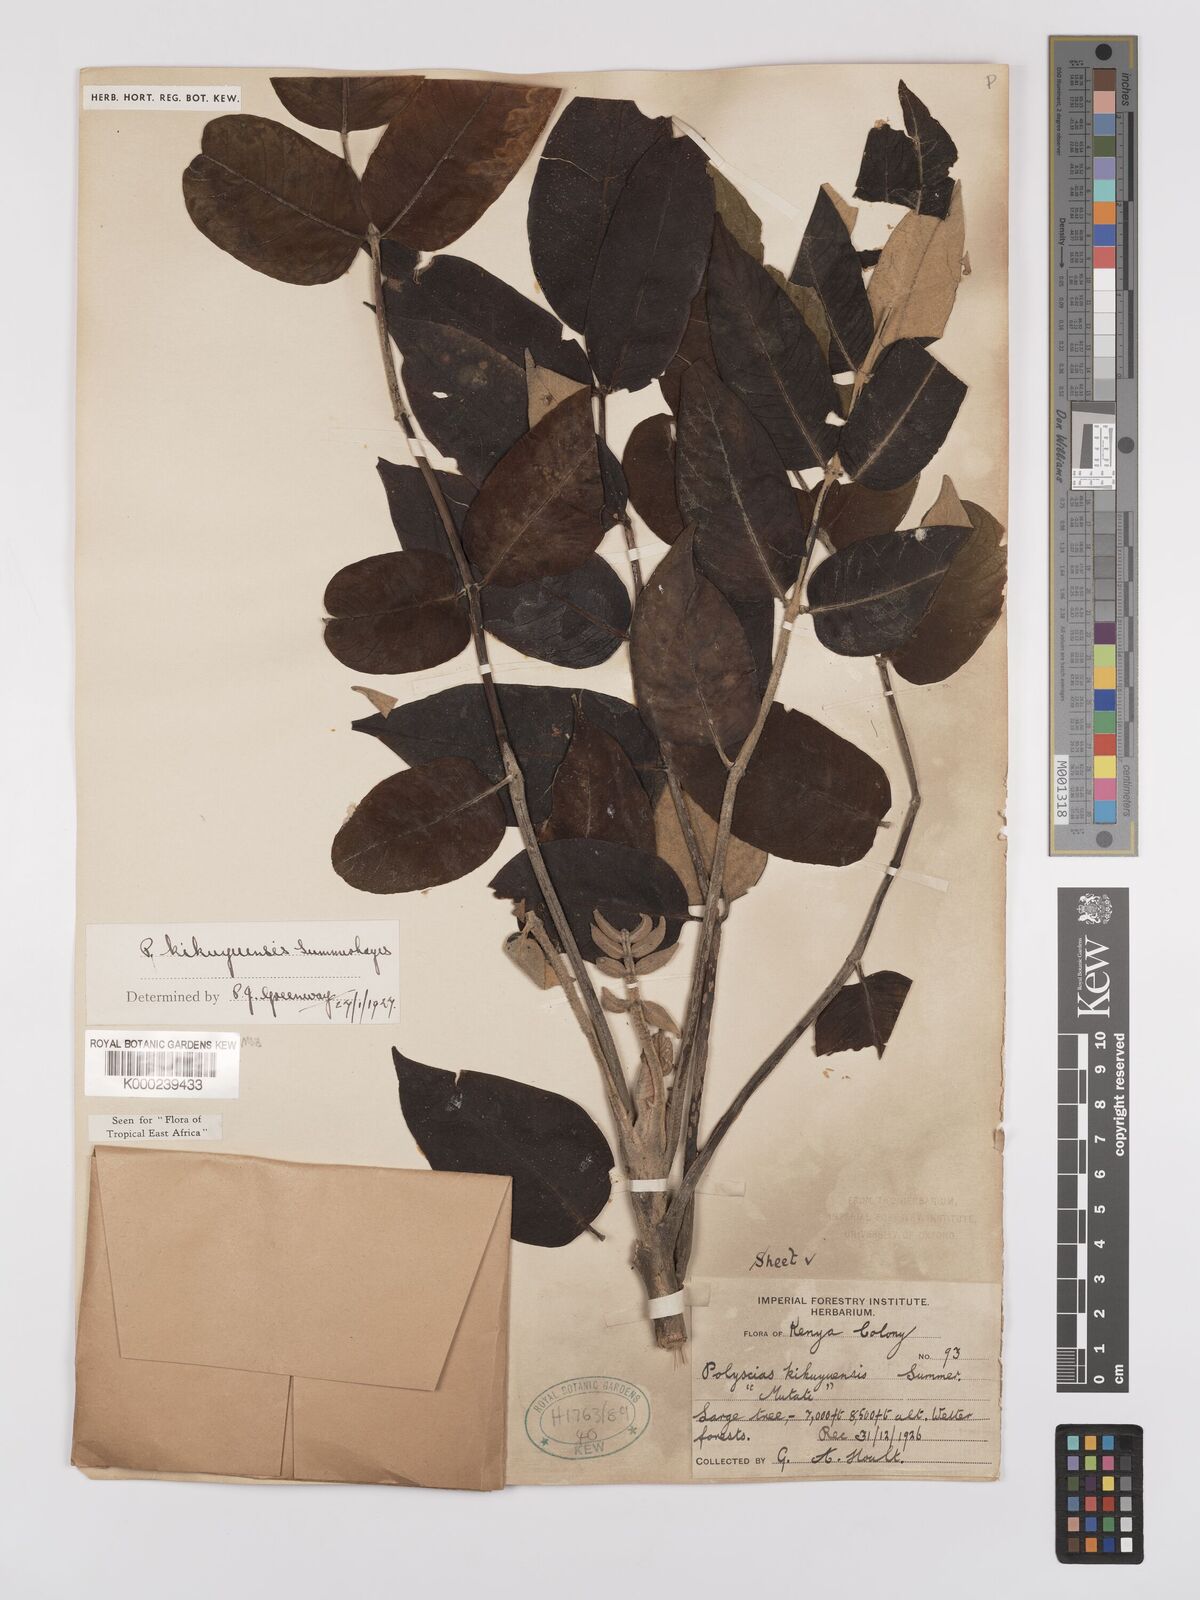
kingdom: Plantae
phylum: Tracheophyta
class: Magnoliopsida
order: Apiales
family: Araliaceae
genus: Polyscias
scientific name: Polyscias kikuyuensis
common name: Parasol tree
